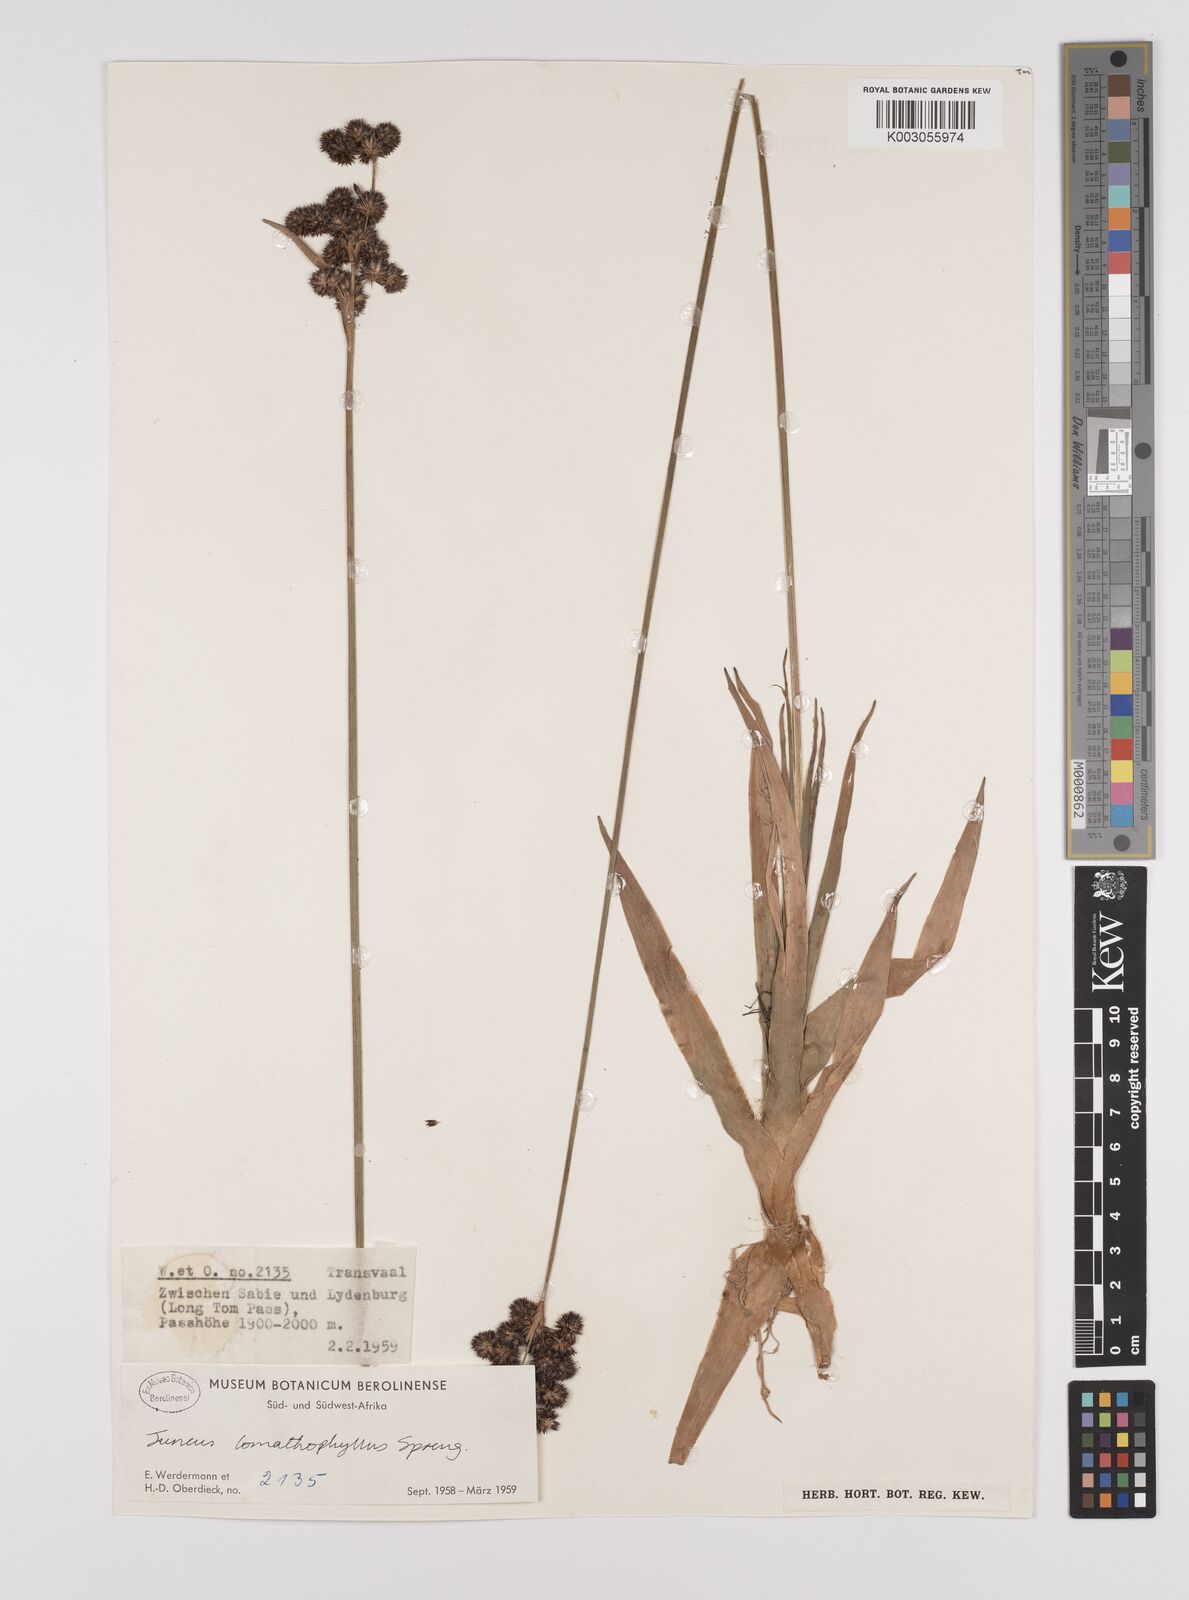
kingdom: Plantae
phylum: Tracheophyta
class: Liliopsida
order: Poales
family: Juncaceae
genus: Juncus
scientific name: Juncus lomatophyllus
